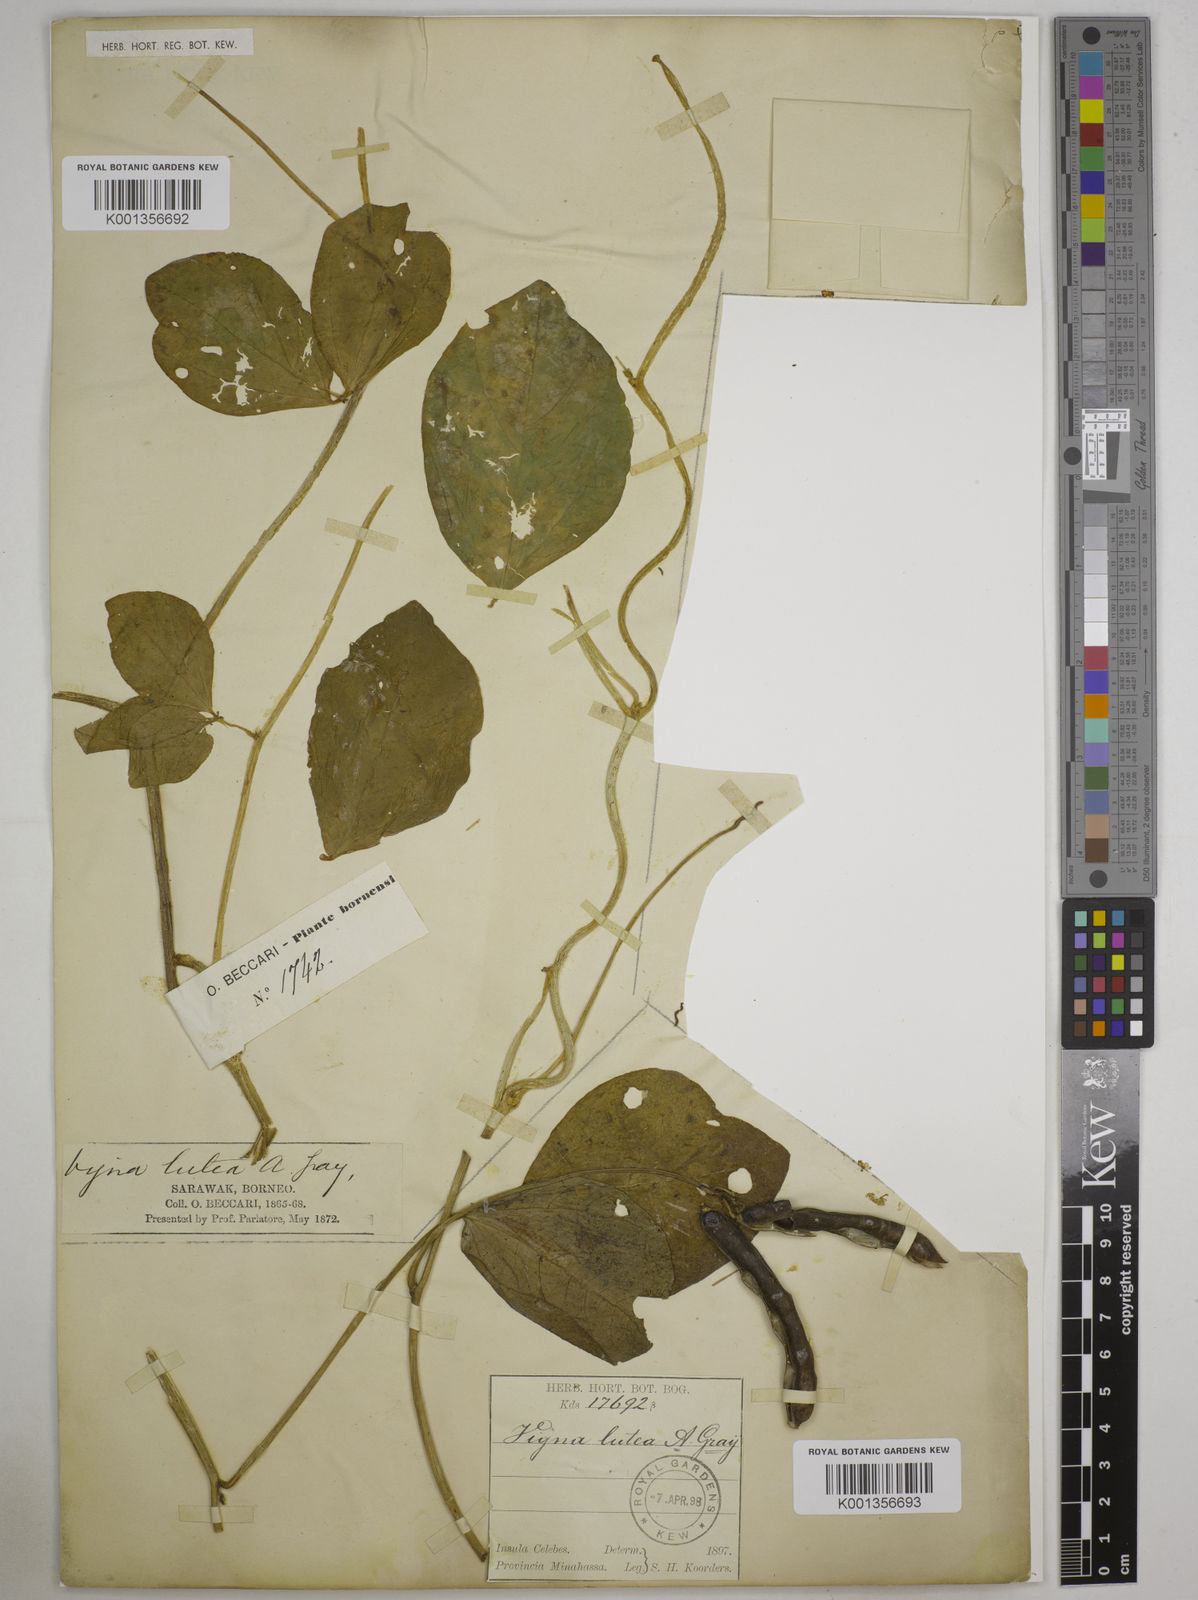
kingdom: Plantae
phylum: Tracheophyta
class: Magnoliopsida
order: Fabales
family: Fabaceae
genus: Vigna
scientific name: Vigna marina
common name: Dune-bean
